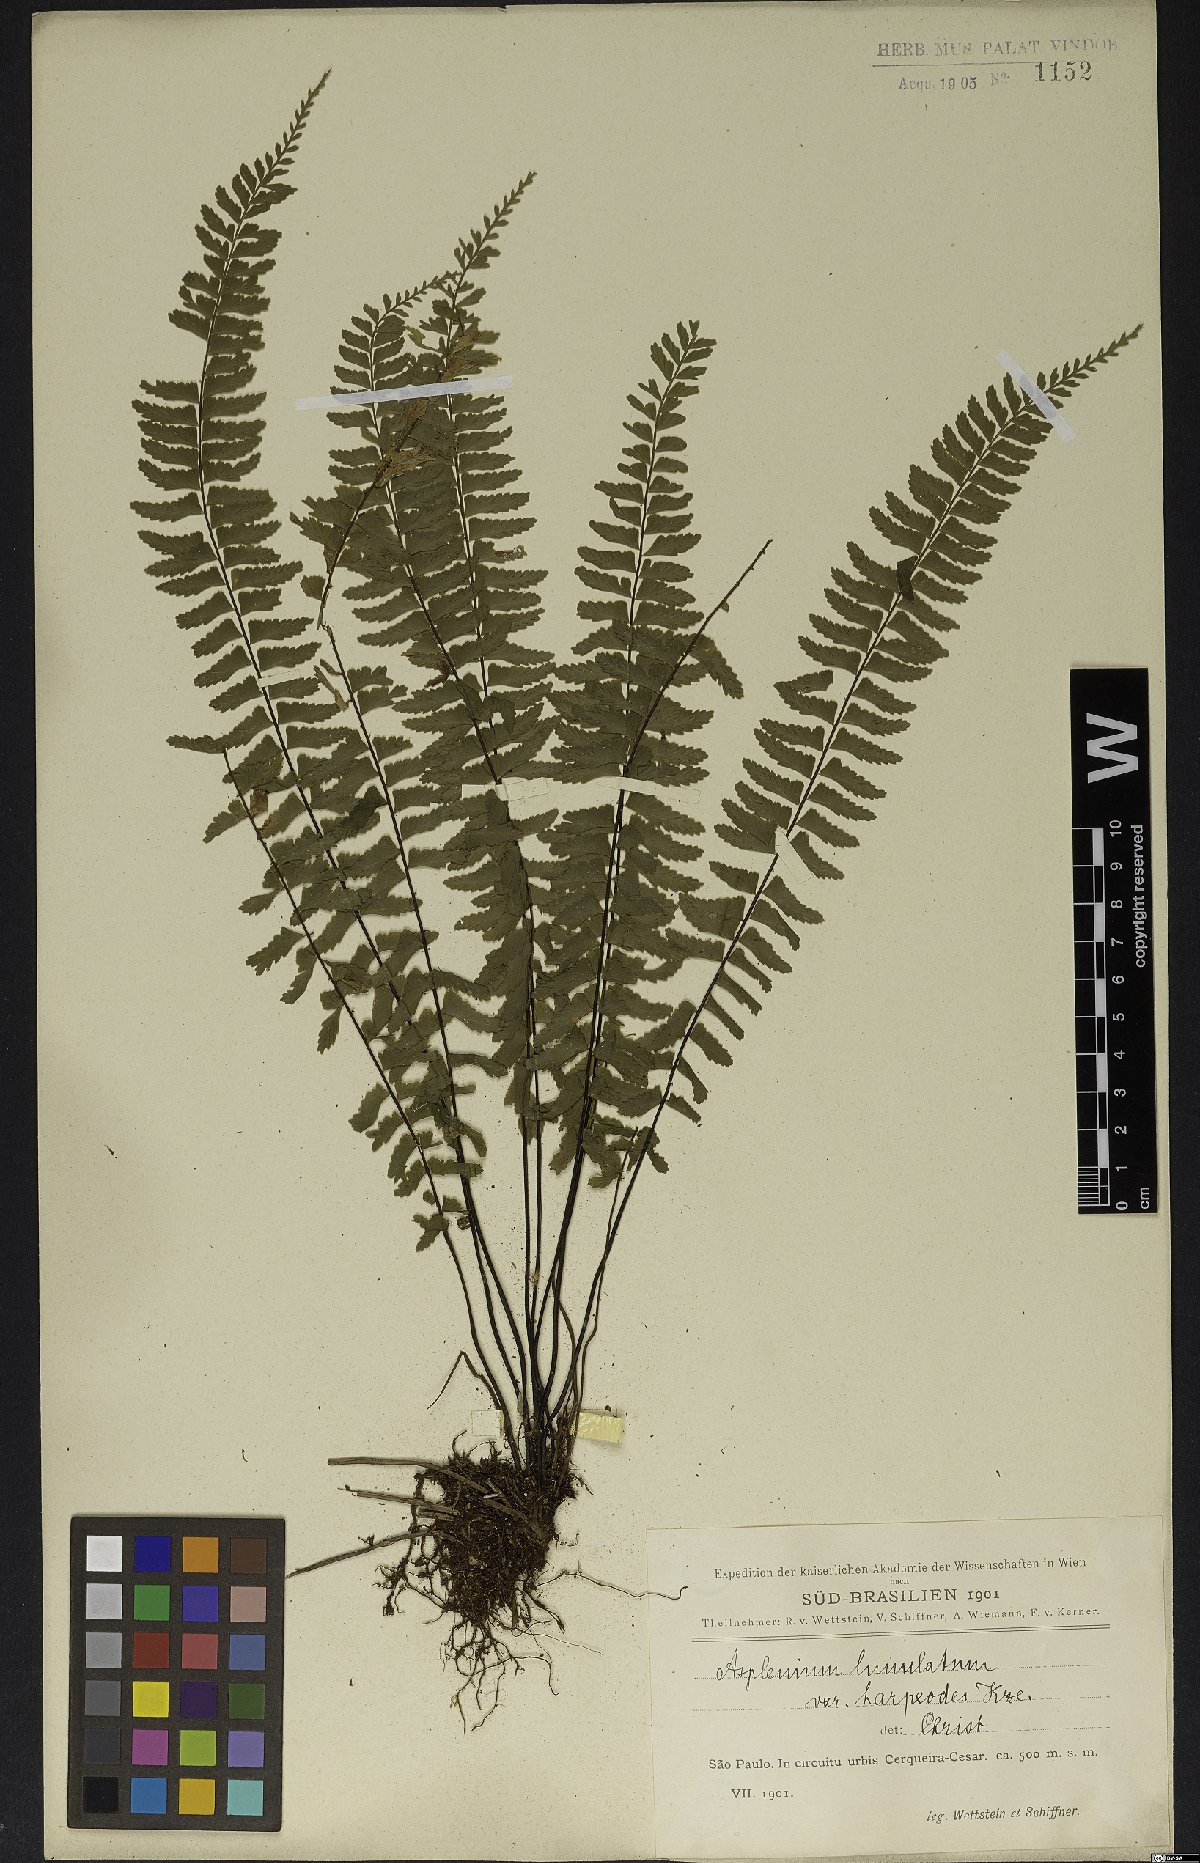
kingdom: Plantae
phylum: Tracheophyta
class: Polypodiopsida
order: Polypodiales
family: Aspleniaceae
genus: Asplenium
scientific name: Asplenium lunulatum
